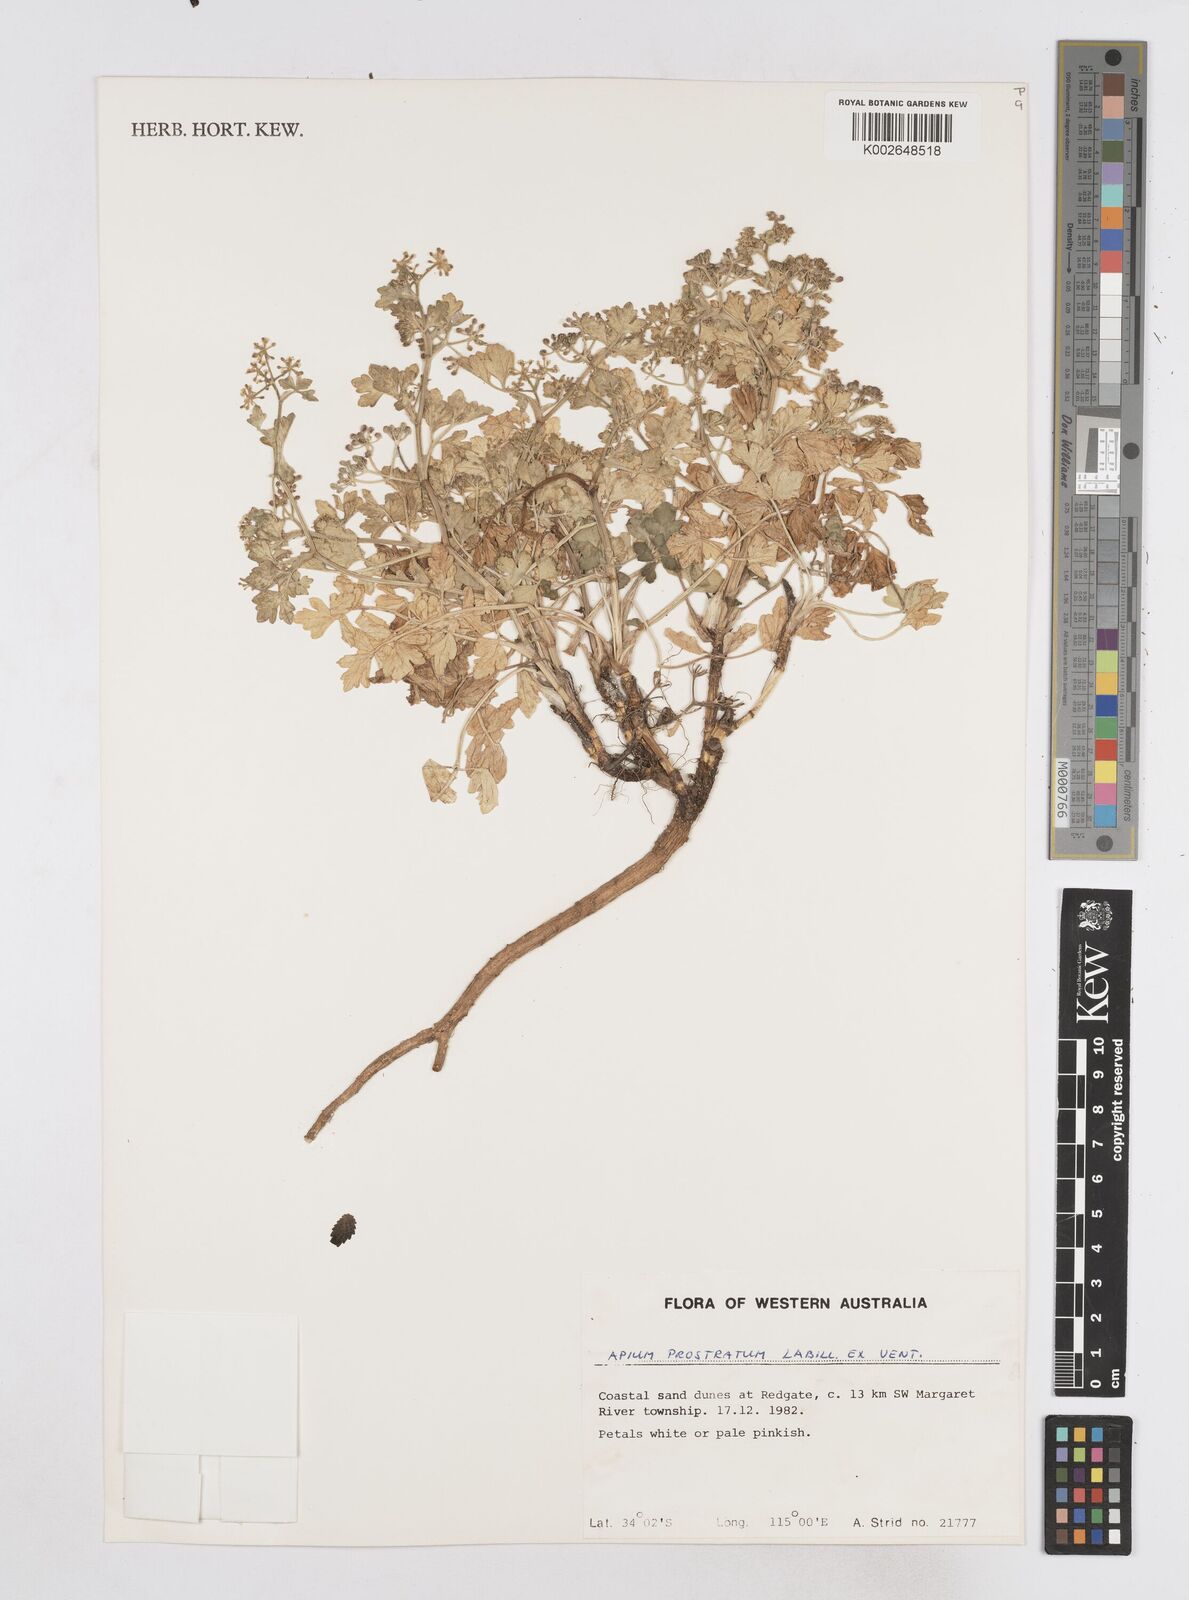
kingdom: Plantae
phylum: Tracheophyta
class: Magnoliopsida
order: Apiales
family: Apiaceae
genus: Apium
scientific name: Apium prostratum
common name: Prostrate marshwort
